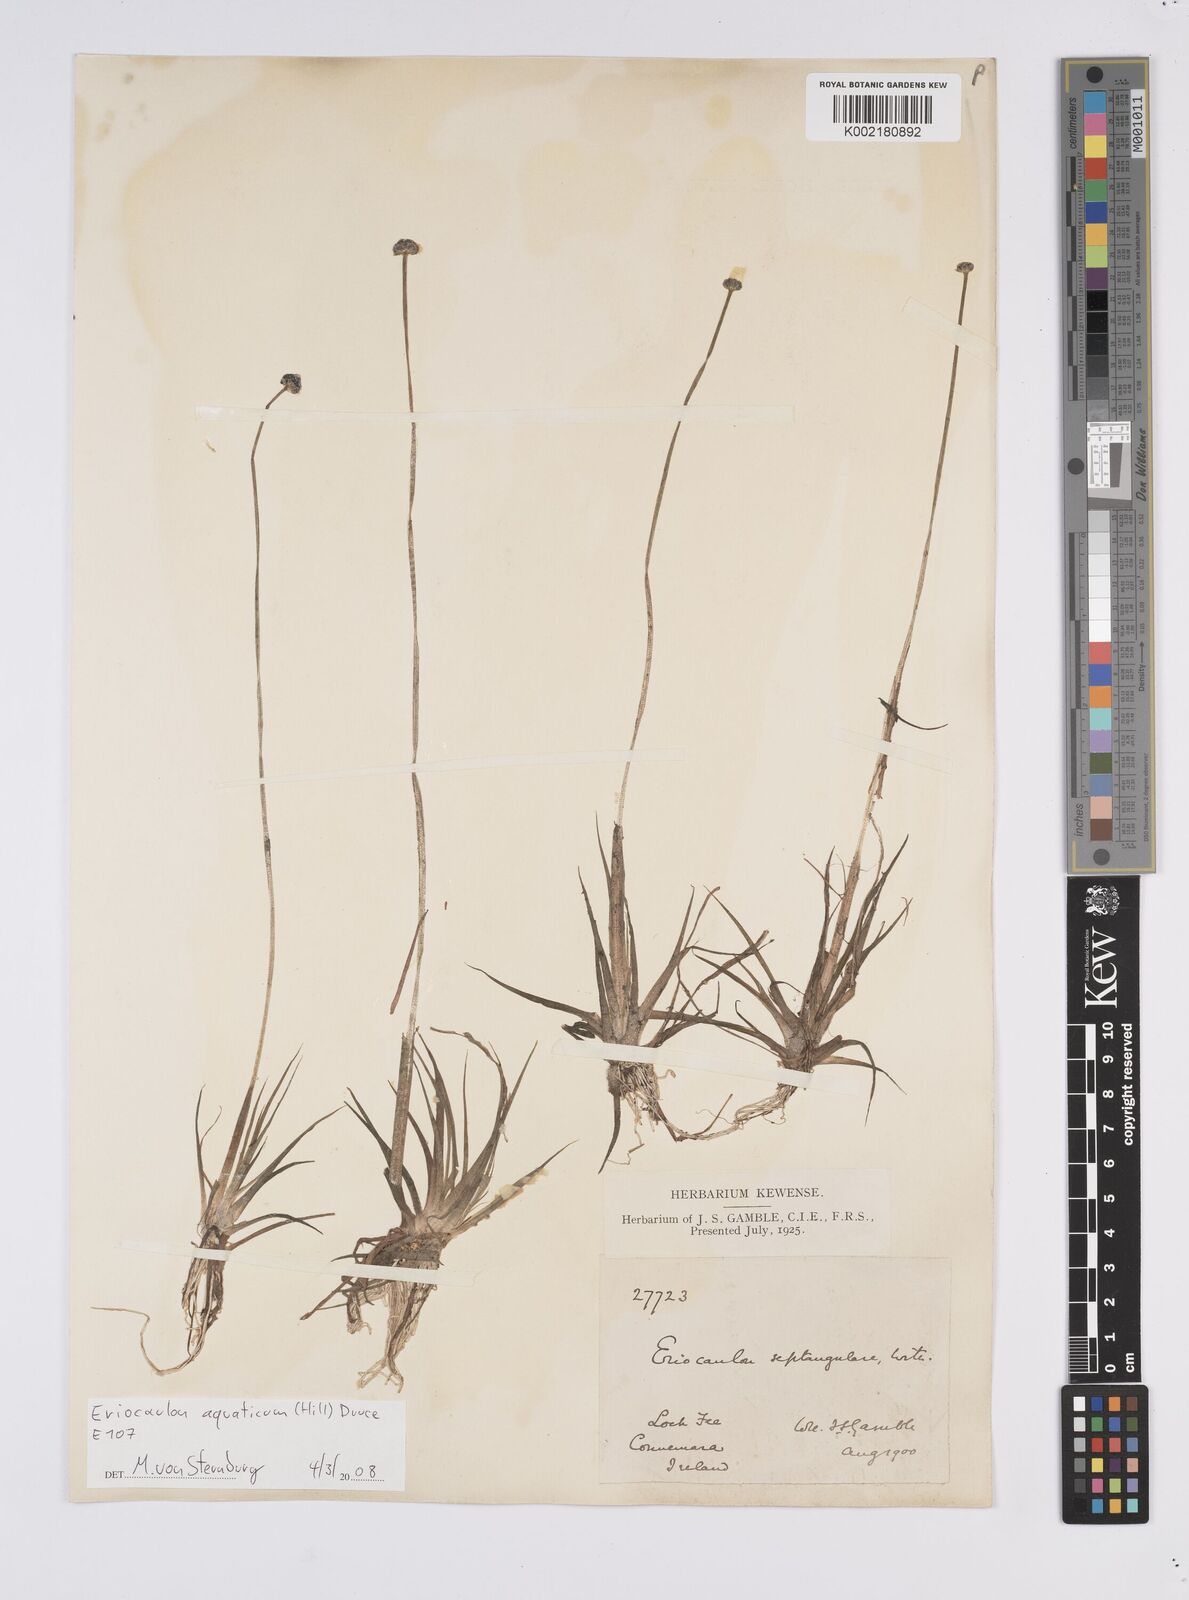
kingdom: Plantae
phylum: Tracheophyta
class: Liliopsida
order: Poales
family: Eriocaulaceae
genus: Eriocaulon
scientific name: Eriocaulon aquaticum
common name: Pipewort
